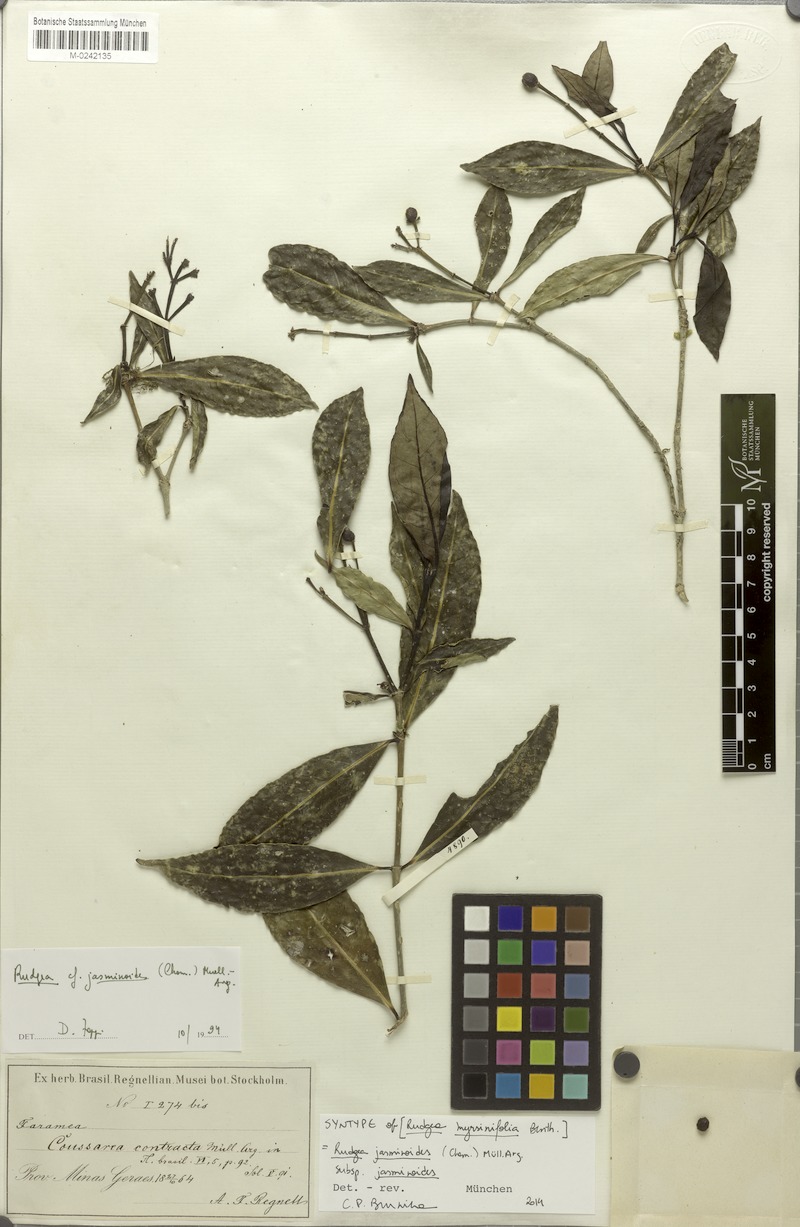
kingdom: Plantae
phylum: Tracheophyta
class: Magnoliopsida
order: Gentianales
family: Rubiaceae
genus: Rudgea
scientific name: Rudgea jasminoides
